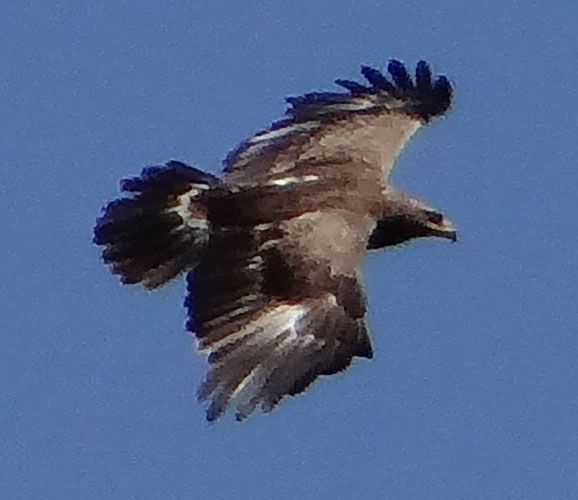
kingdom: Animalia
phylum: Chordata
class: Aves
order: Accipitriformes
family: Accipitridae
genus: Aquila
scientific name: Aquila pomarina
